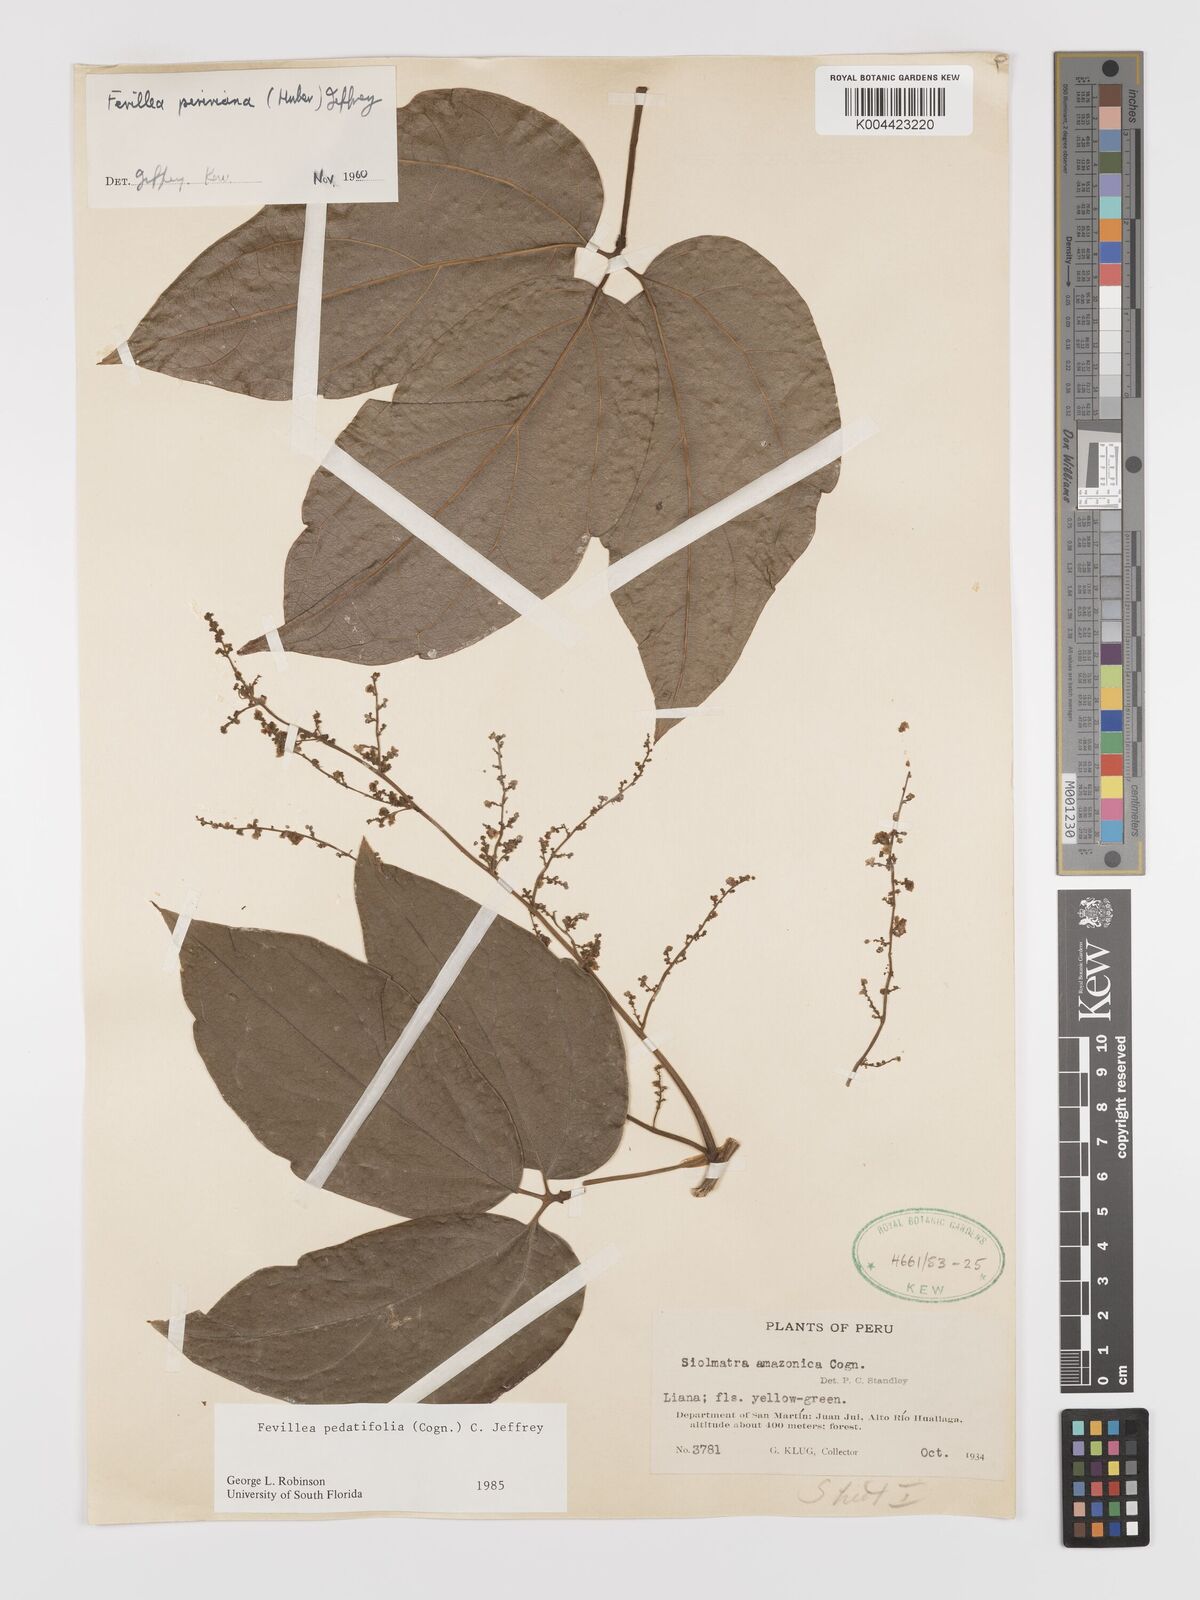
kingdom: Plantae
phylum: Tracheophyta
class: Magnoliopsida
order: Cucurbitales
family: Cucurbitaceae
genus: Fevillea
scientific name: Fevillea pedatifolia
